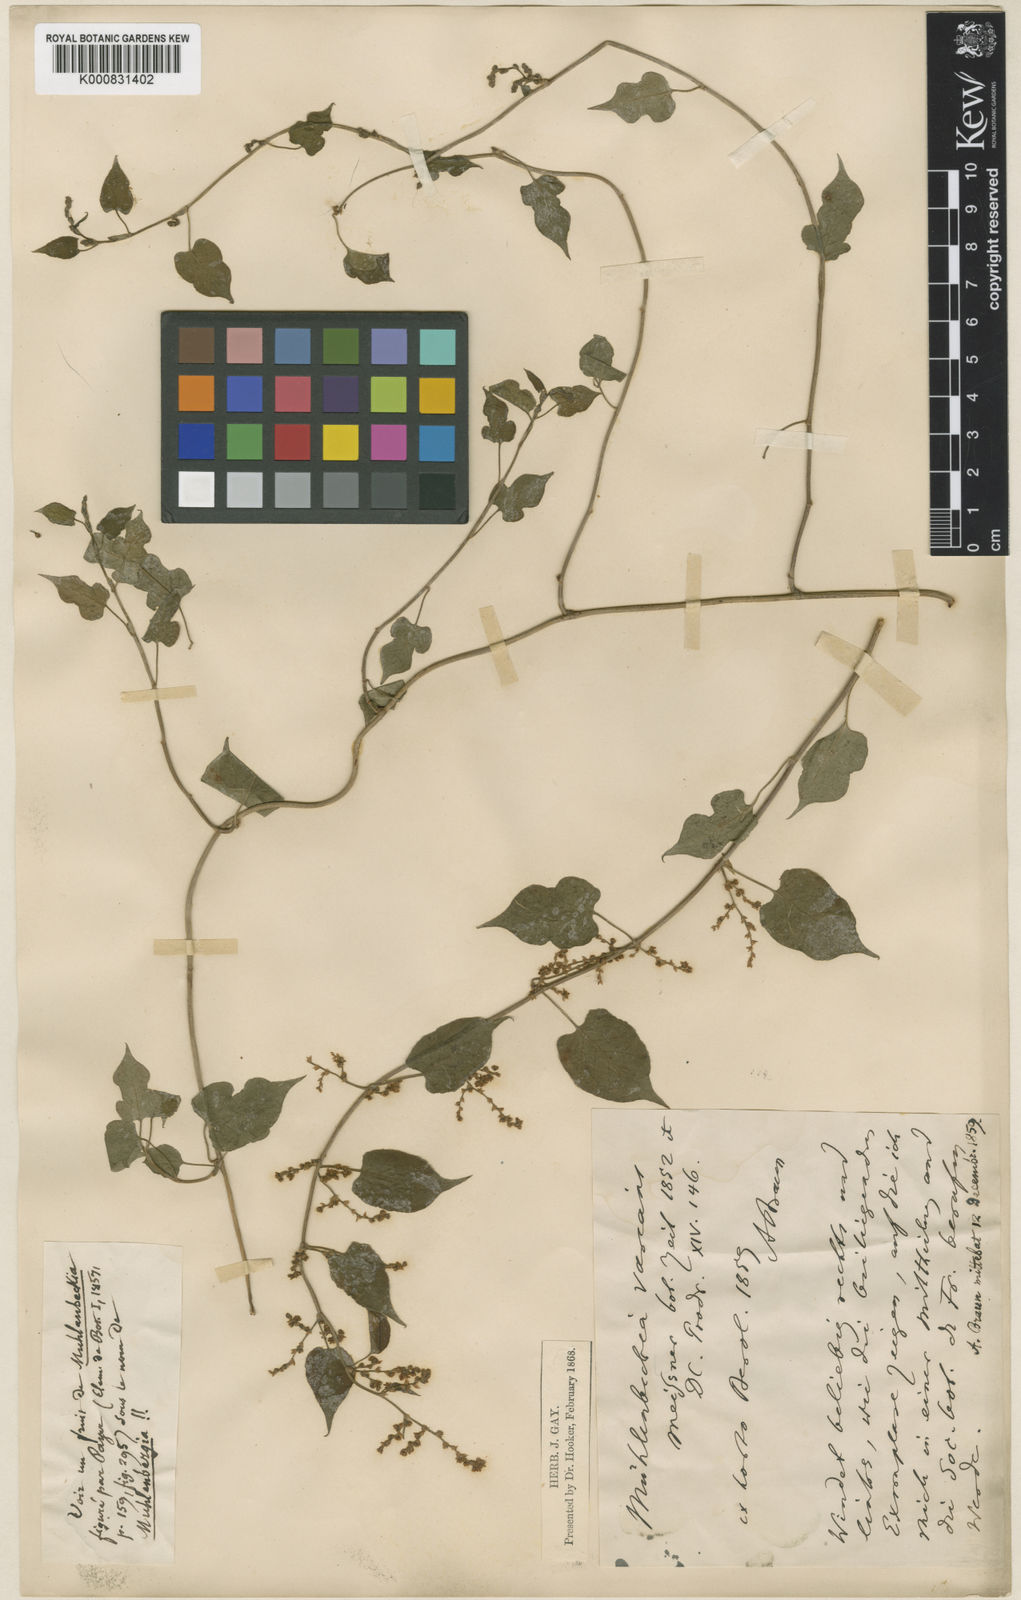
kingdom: Plantae
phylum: Tracheophyta
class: Magnoliopsida
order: Caryophyllales
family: Polygonaceae
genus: Muehlenbeckia
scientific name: Muehlenbeckia complexa
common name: Wireplant
